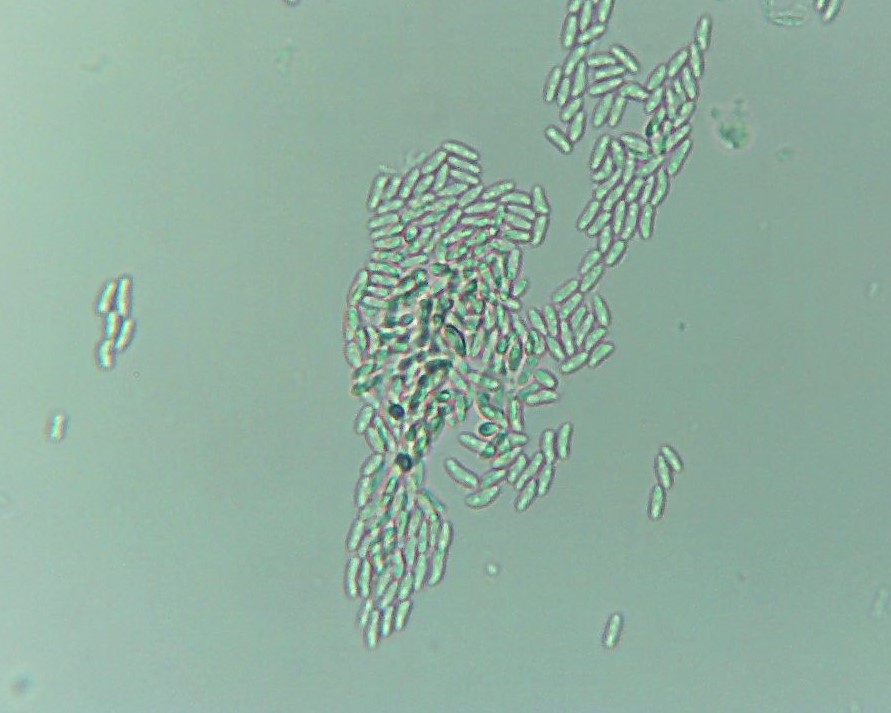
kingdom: Fungi
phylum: Basidiomycota
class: Tremellomycetes
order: Tremellales
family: Exidiaceae
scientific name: Exidiaceae
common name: bævretopfamilien
